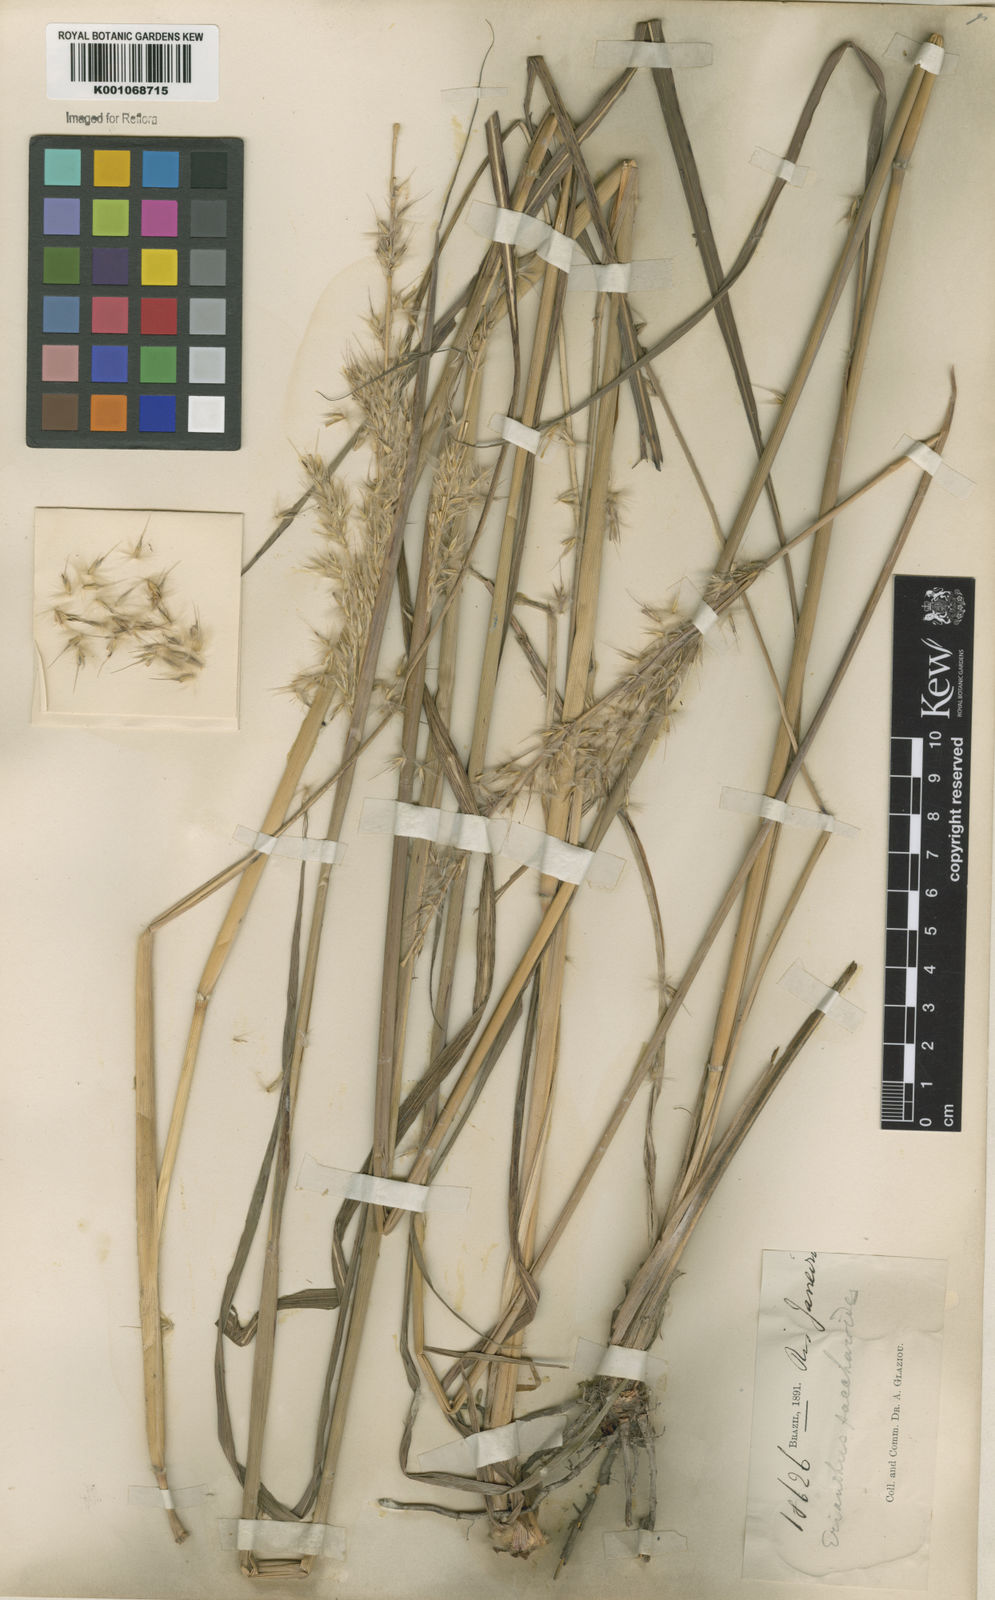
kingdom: Plantae
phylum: Tracheophyta
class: Liliopsida
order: Poales
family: Poaceae
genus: Saccharum
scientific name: Saccharum angustifolium
